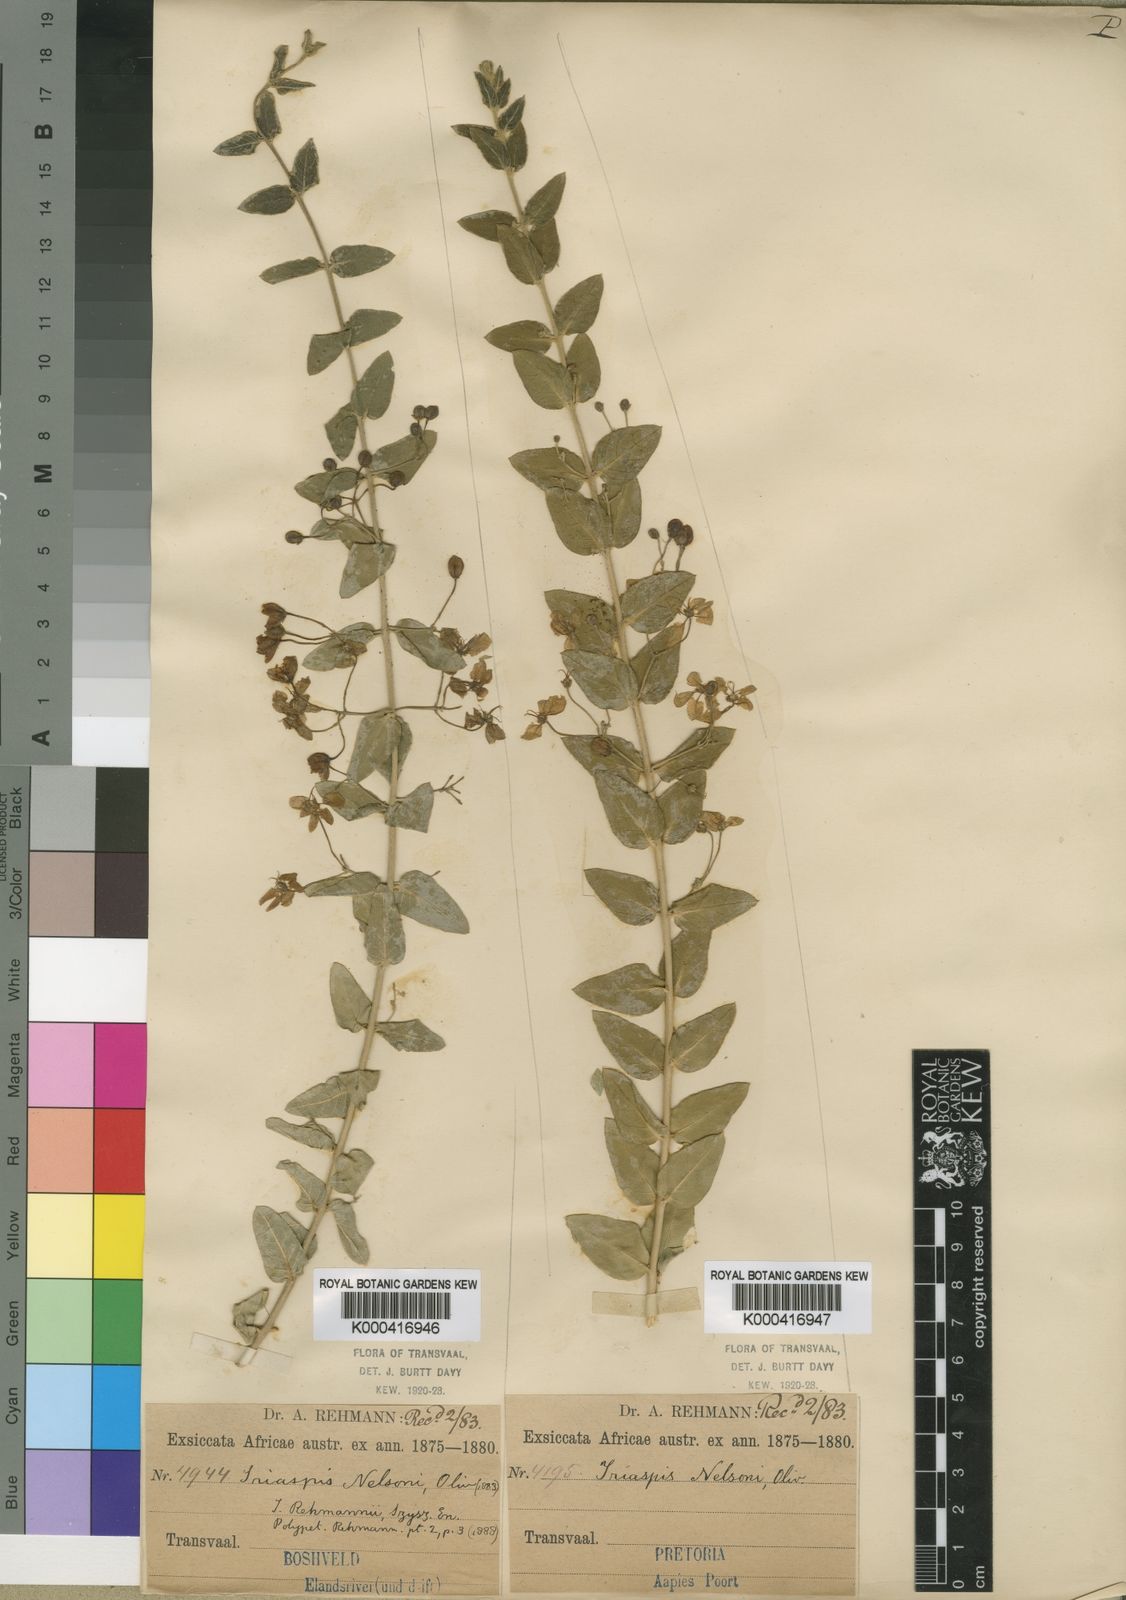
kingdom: Plantae
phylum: Tracheophyta
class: Magnoliopsida
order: Malpighiales
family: Malpighiaceae
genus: Triaspis
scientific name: Triaspis hypericoides
